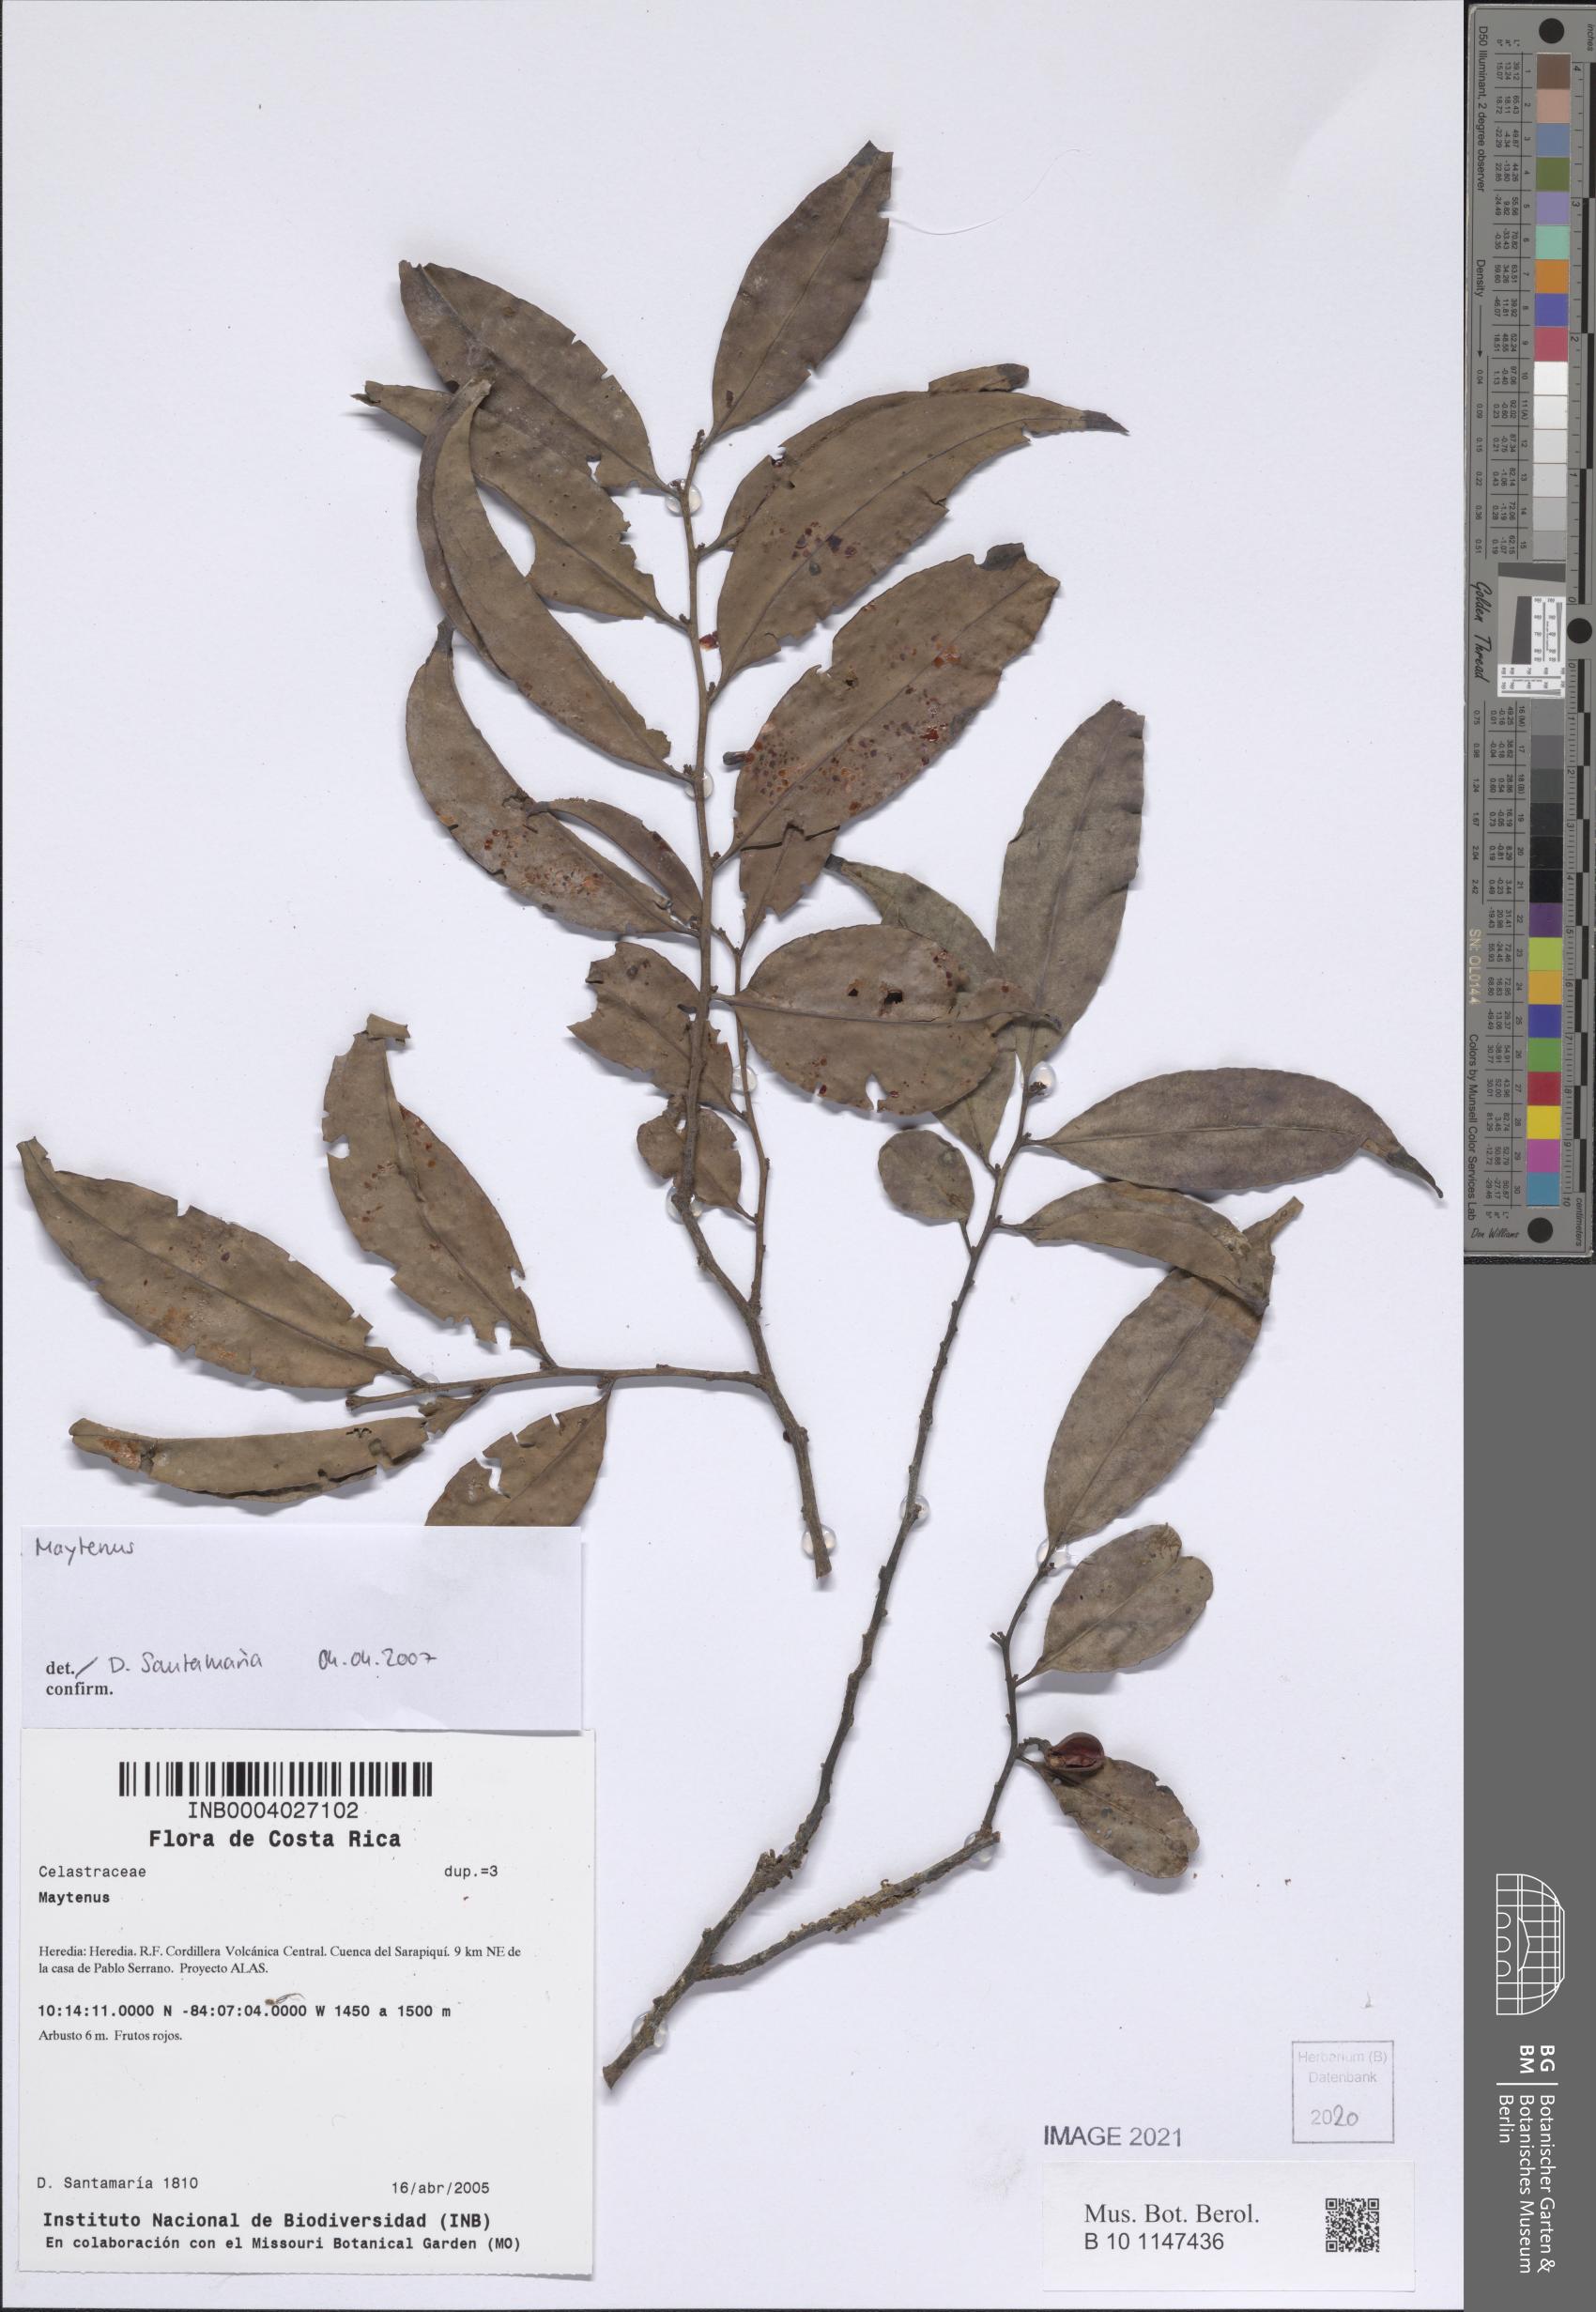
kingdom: Plantae
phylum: Tracheophyta
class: Magnoliopsida
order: Celastrales
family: Celastraceae
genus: Maytenus
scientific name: Maytenus
